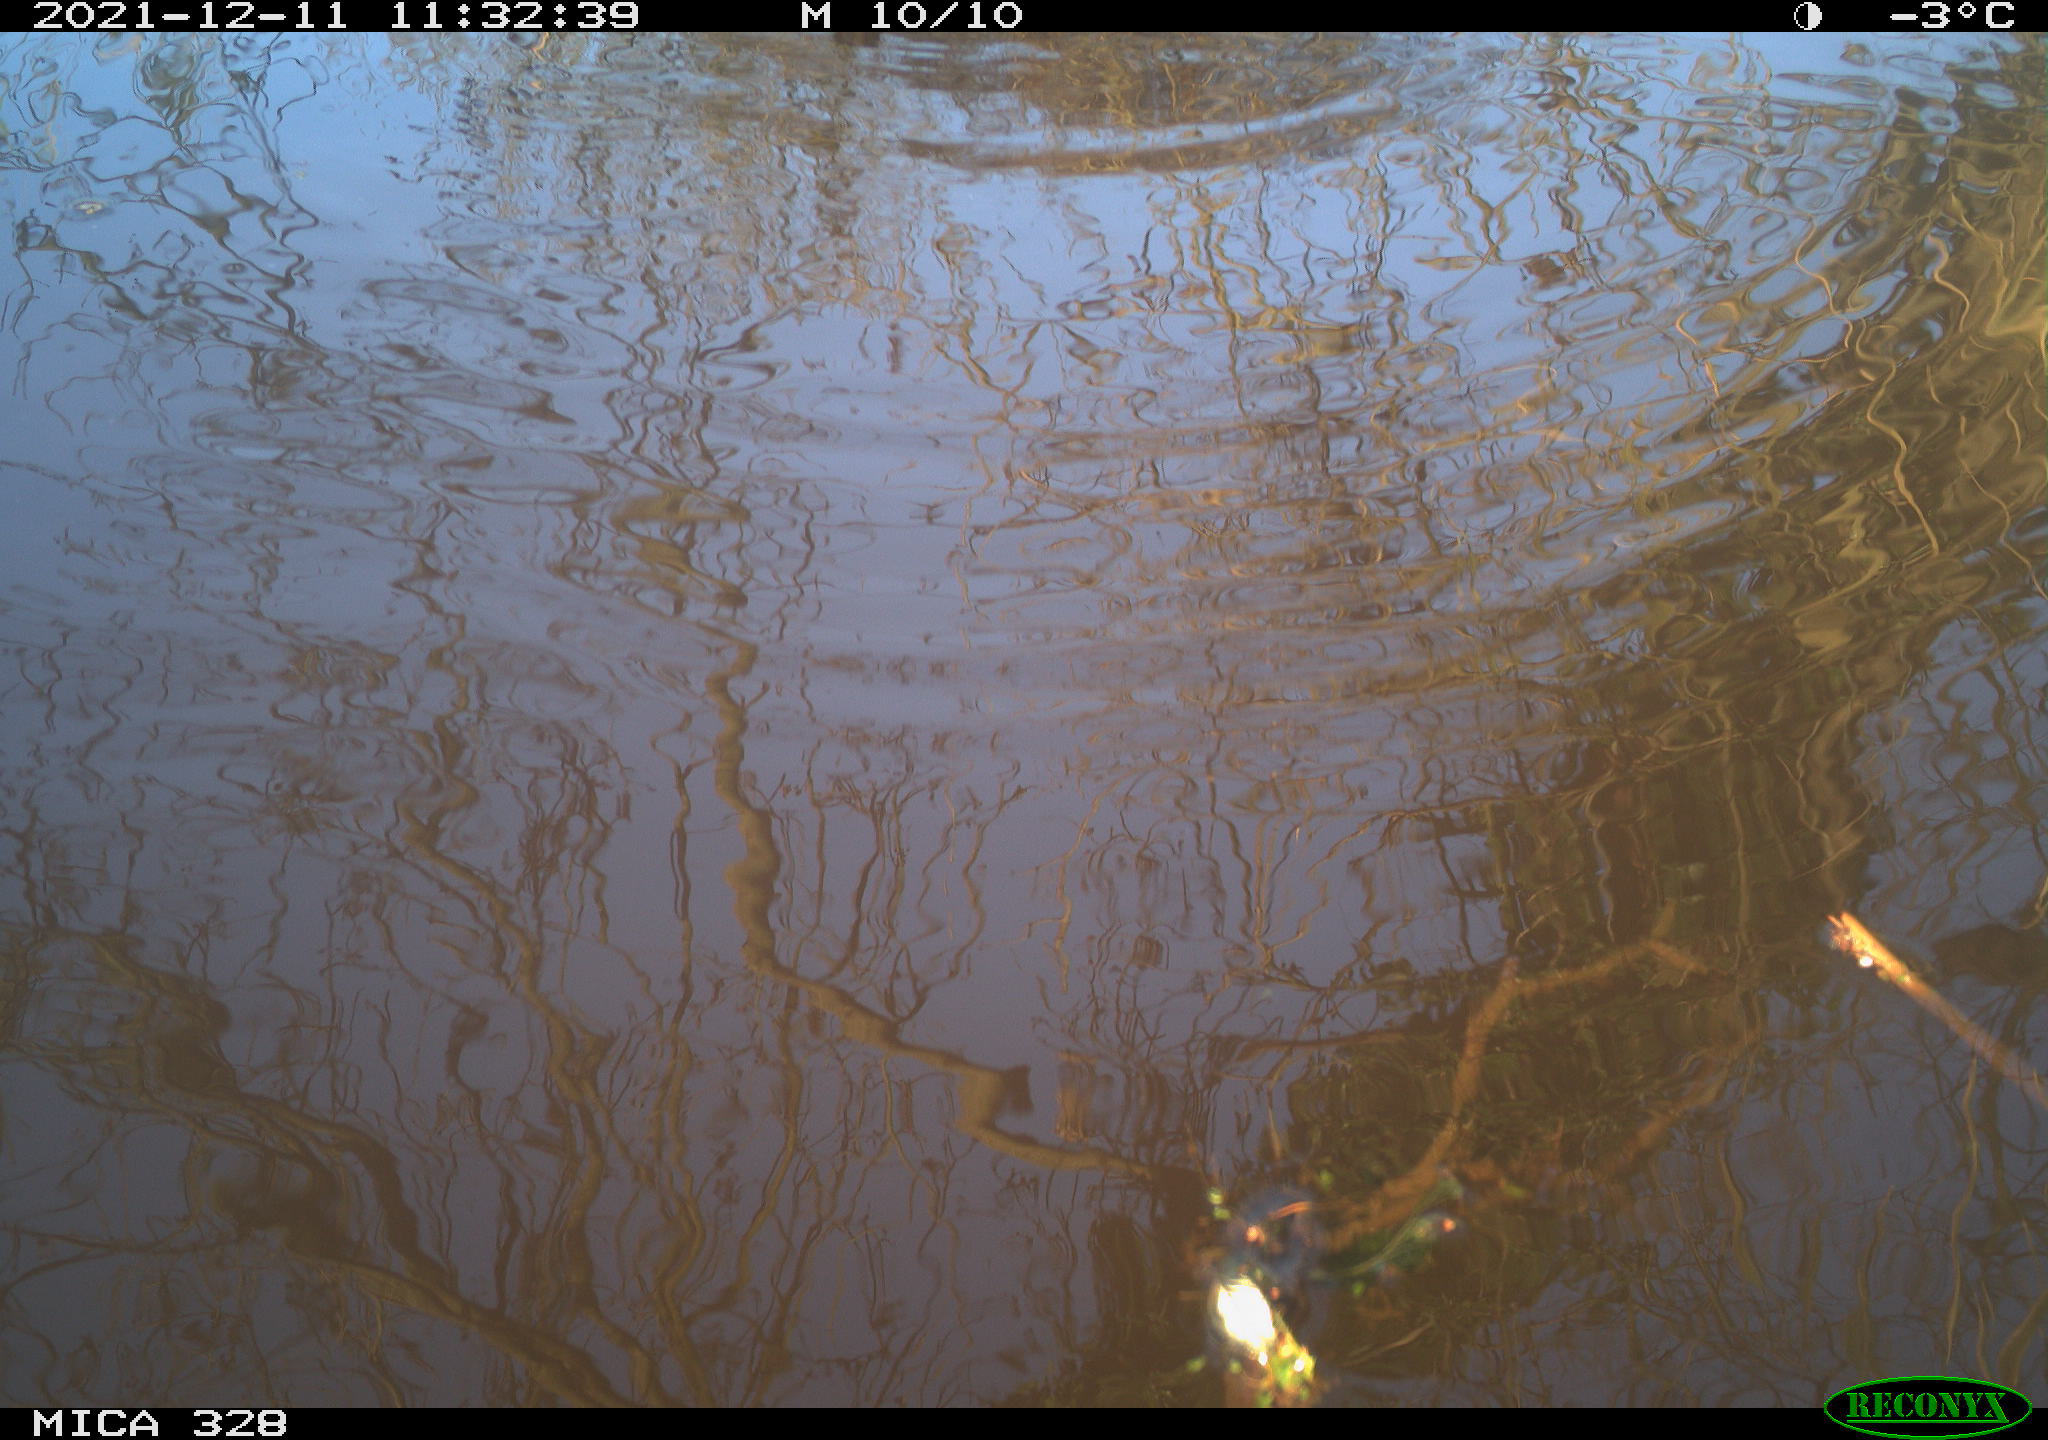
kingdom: Animalia
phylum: Chordata
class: Aves
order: Gruiformes
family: Rallidae
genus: Gallinula
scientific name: Gallinula chloropus
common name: Common moorhen
